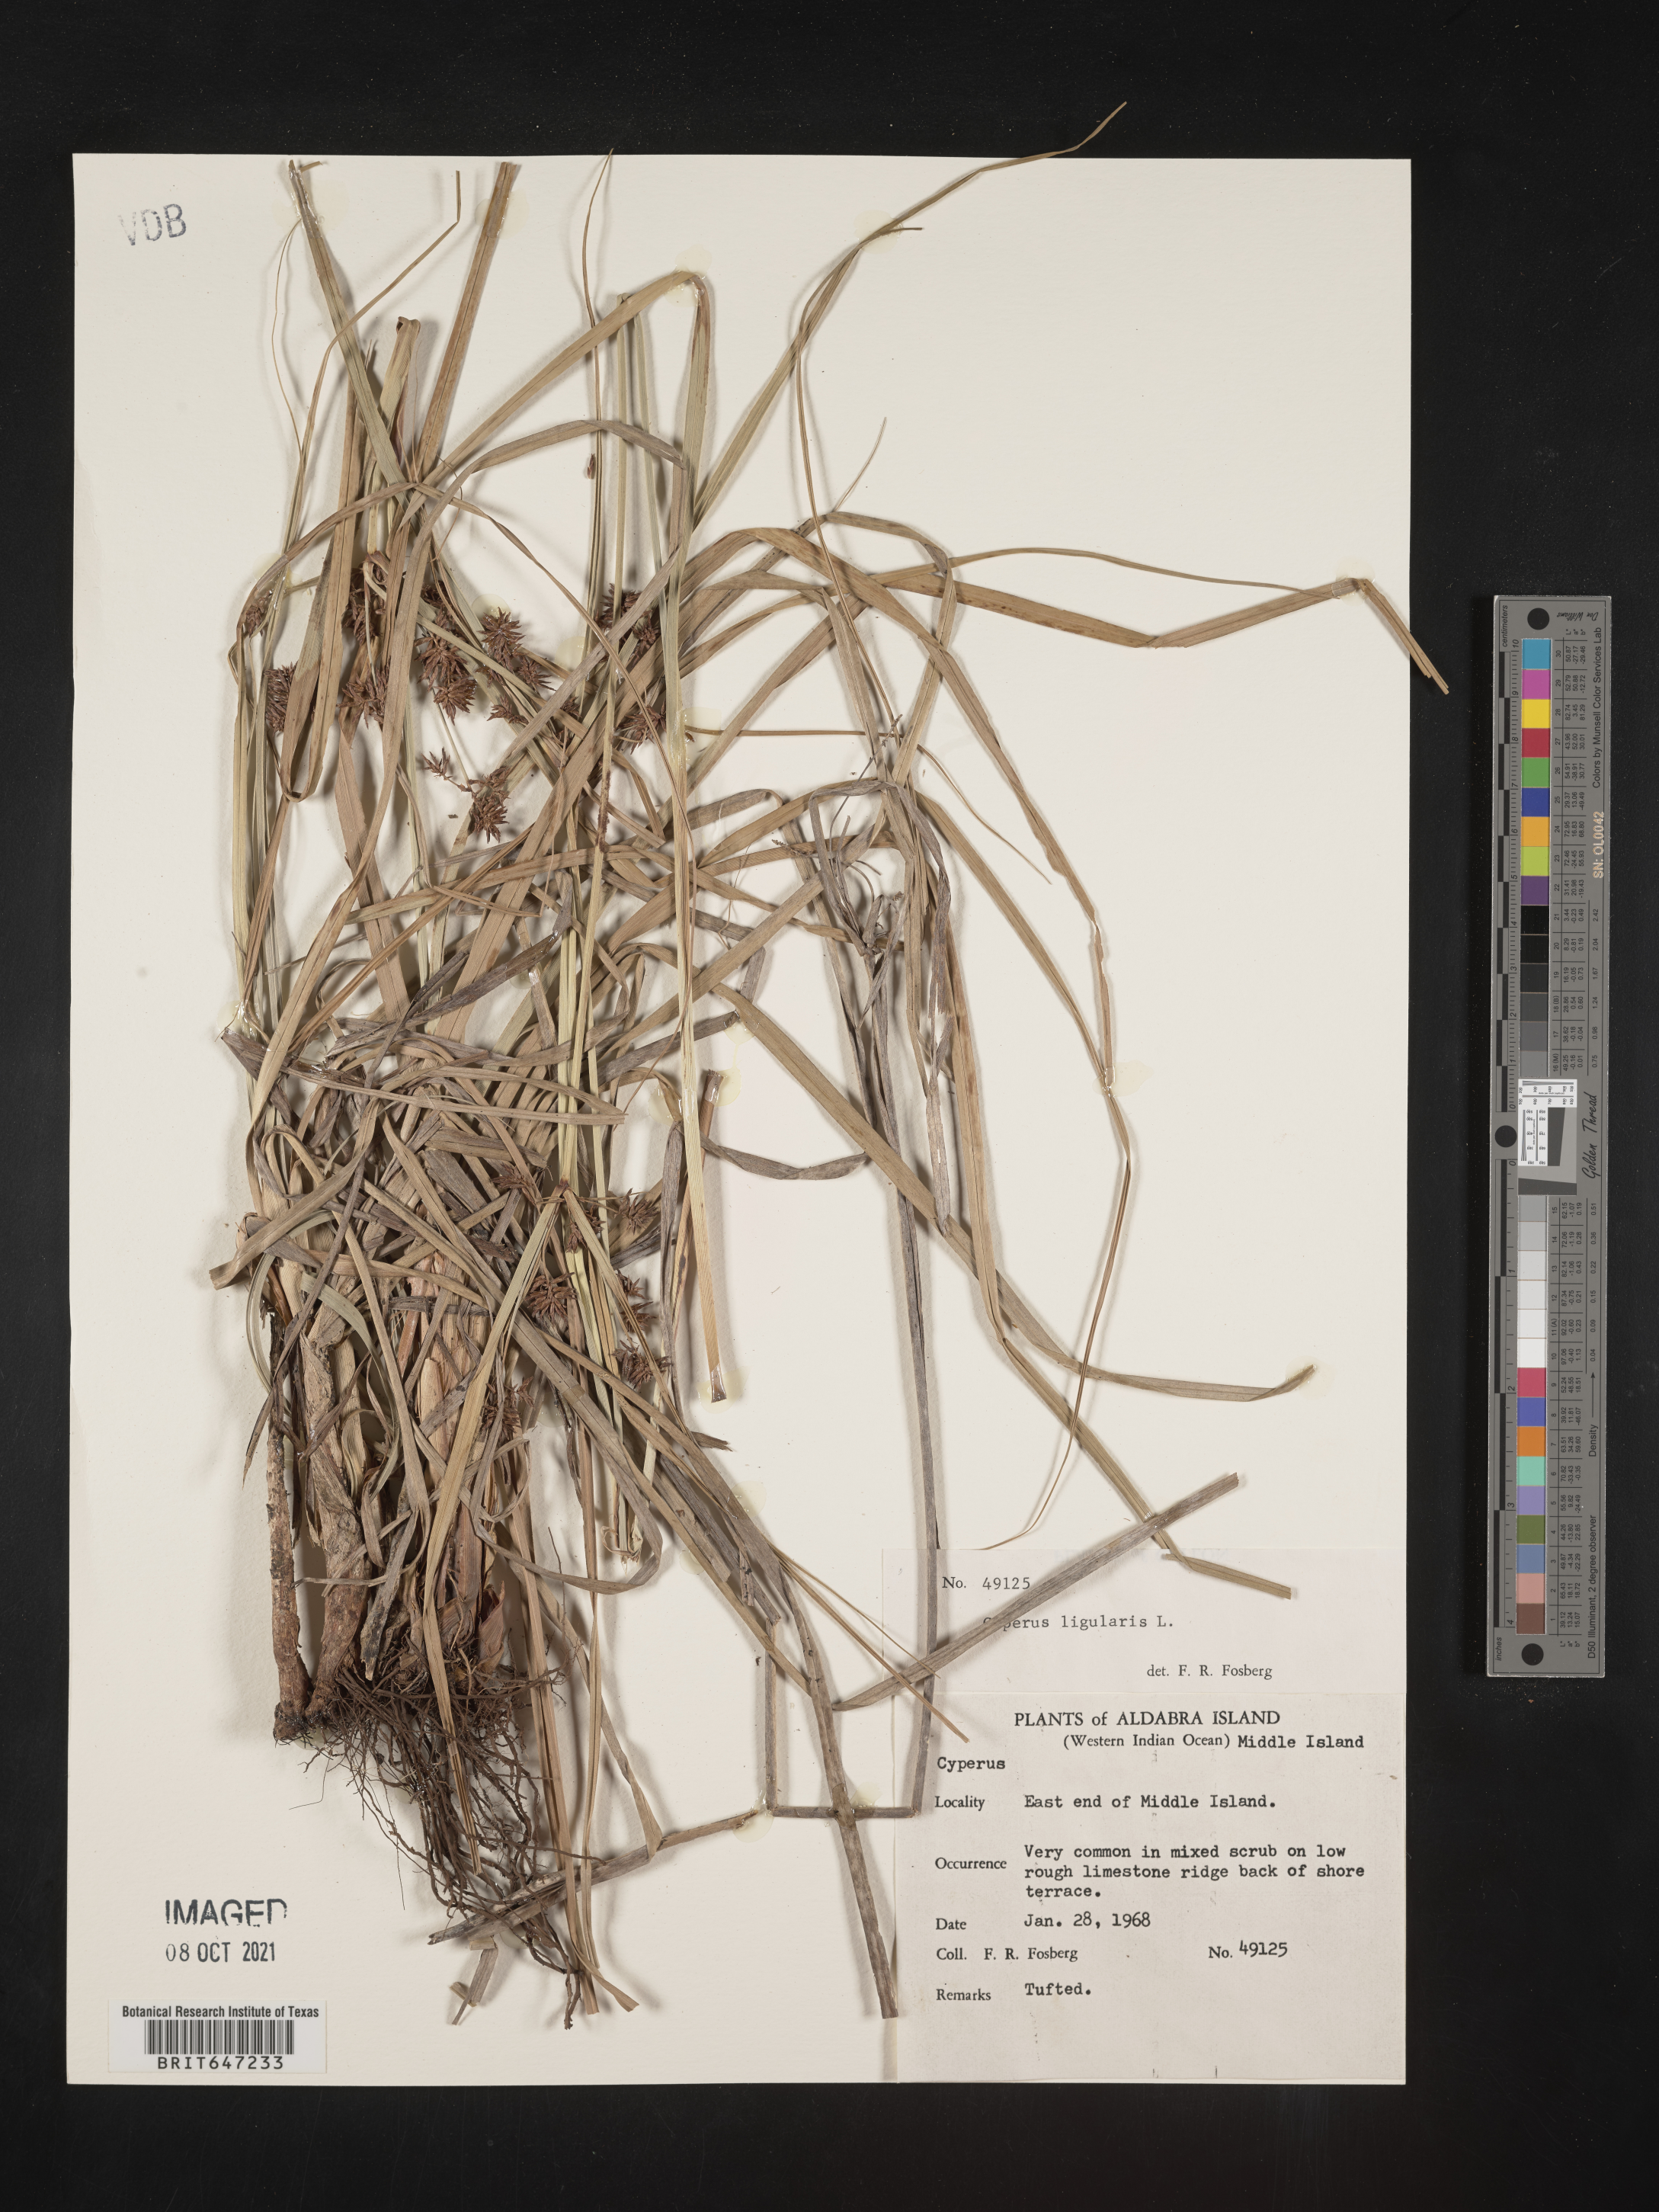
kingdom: Plantae
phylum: Tracheophyta
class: Liliopsida
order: Poales
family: Cyperaceae
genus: Cyperus
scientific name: Cyperus ligularis
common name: Swamp flat sedge
